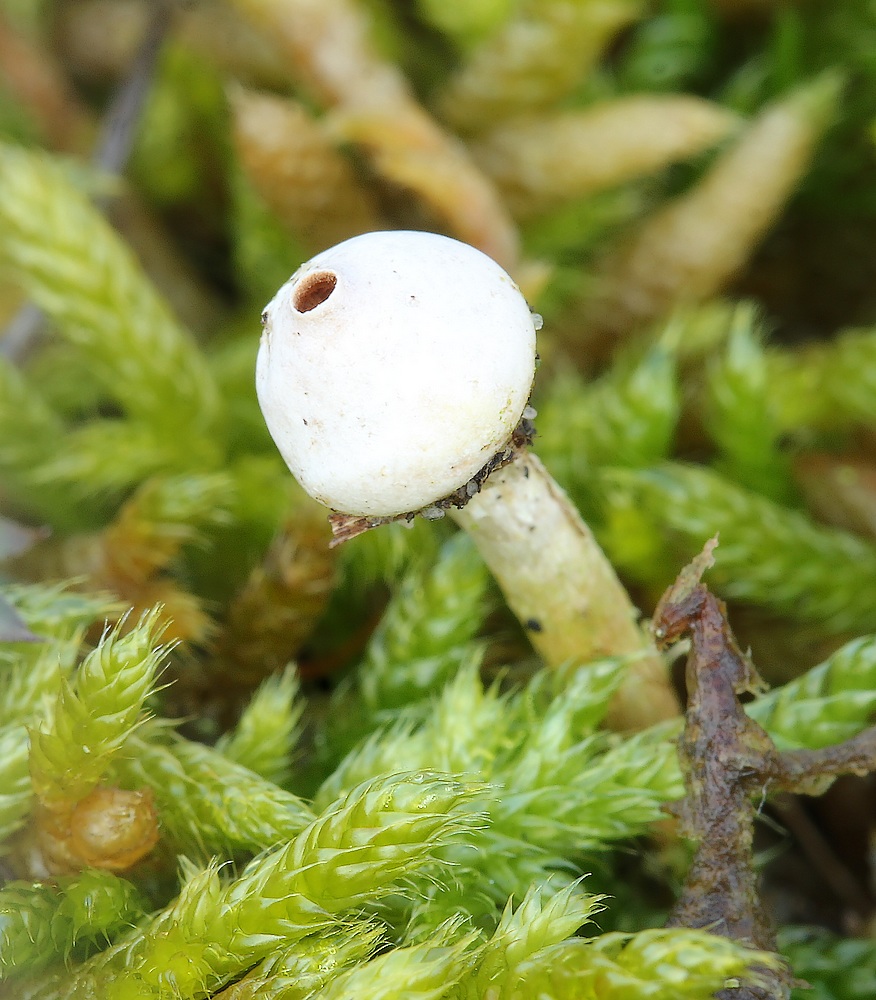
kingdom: Fungi
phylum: Basidiomycota
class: Agaricomycetes
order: Agaricales
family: Agaricaceae
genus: Tulostoma
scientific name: Tulostoma brumale
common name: vinter-stilkbovist
